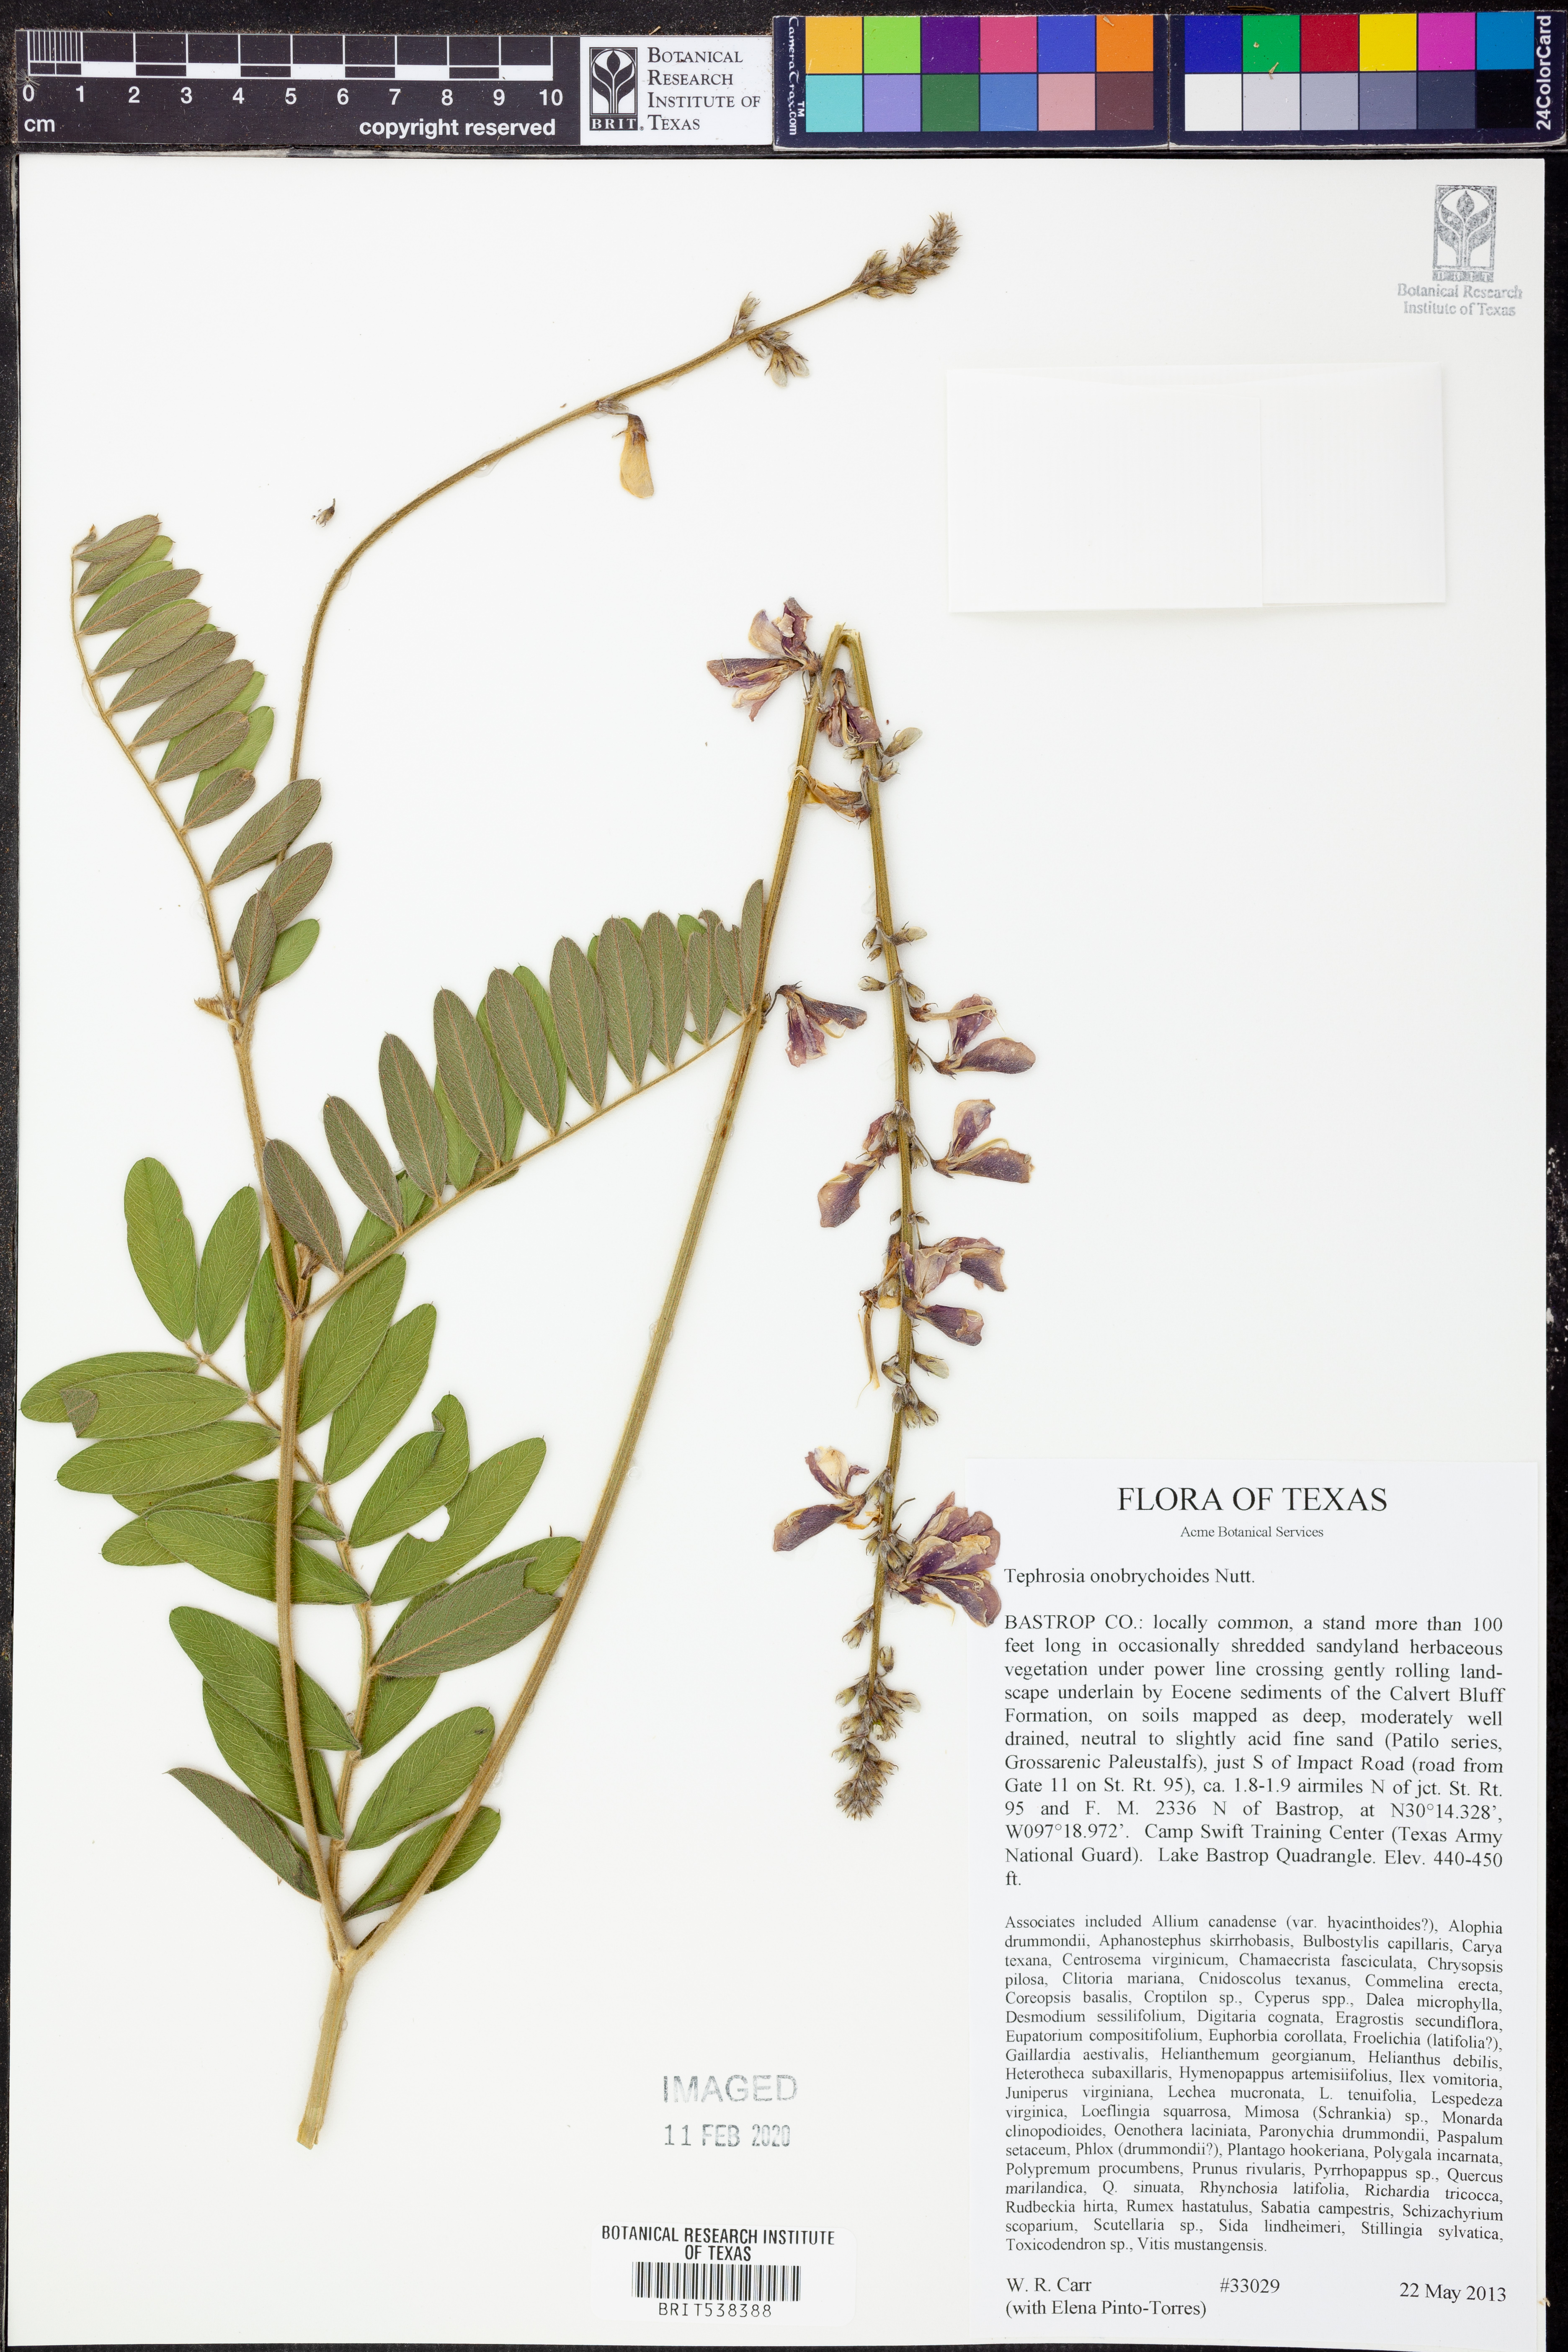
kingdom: Plantae
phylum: Tracheophyta
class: Magnoliopsida
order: Fabales
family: Fabaceae
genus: Tephrosia
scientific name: Tephrosia onobrychoides
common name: Multi-bloom hoary-pea
